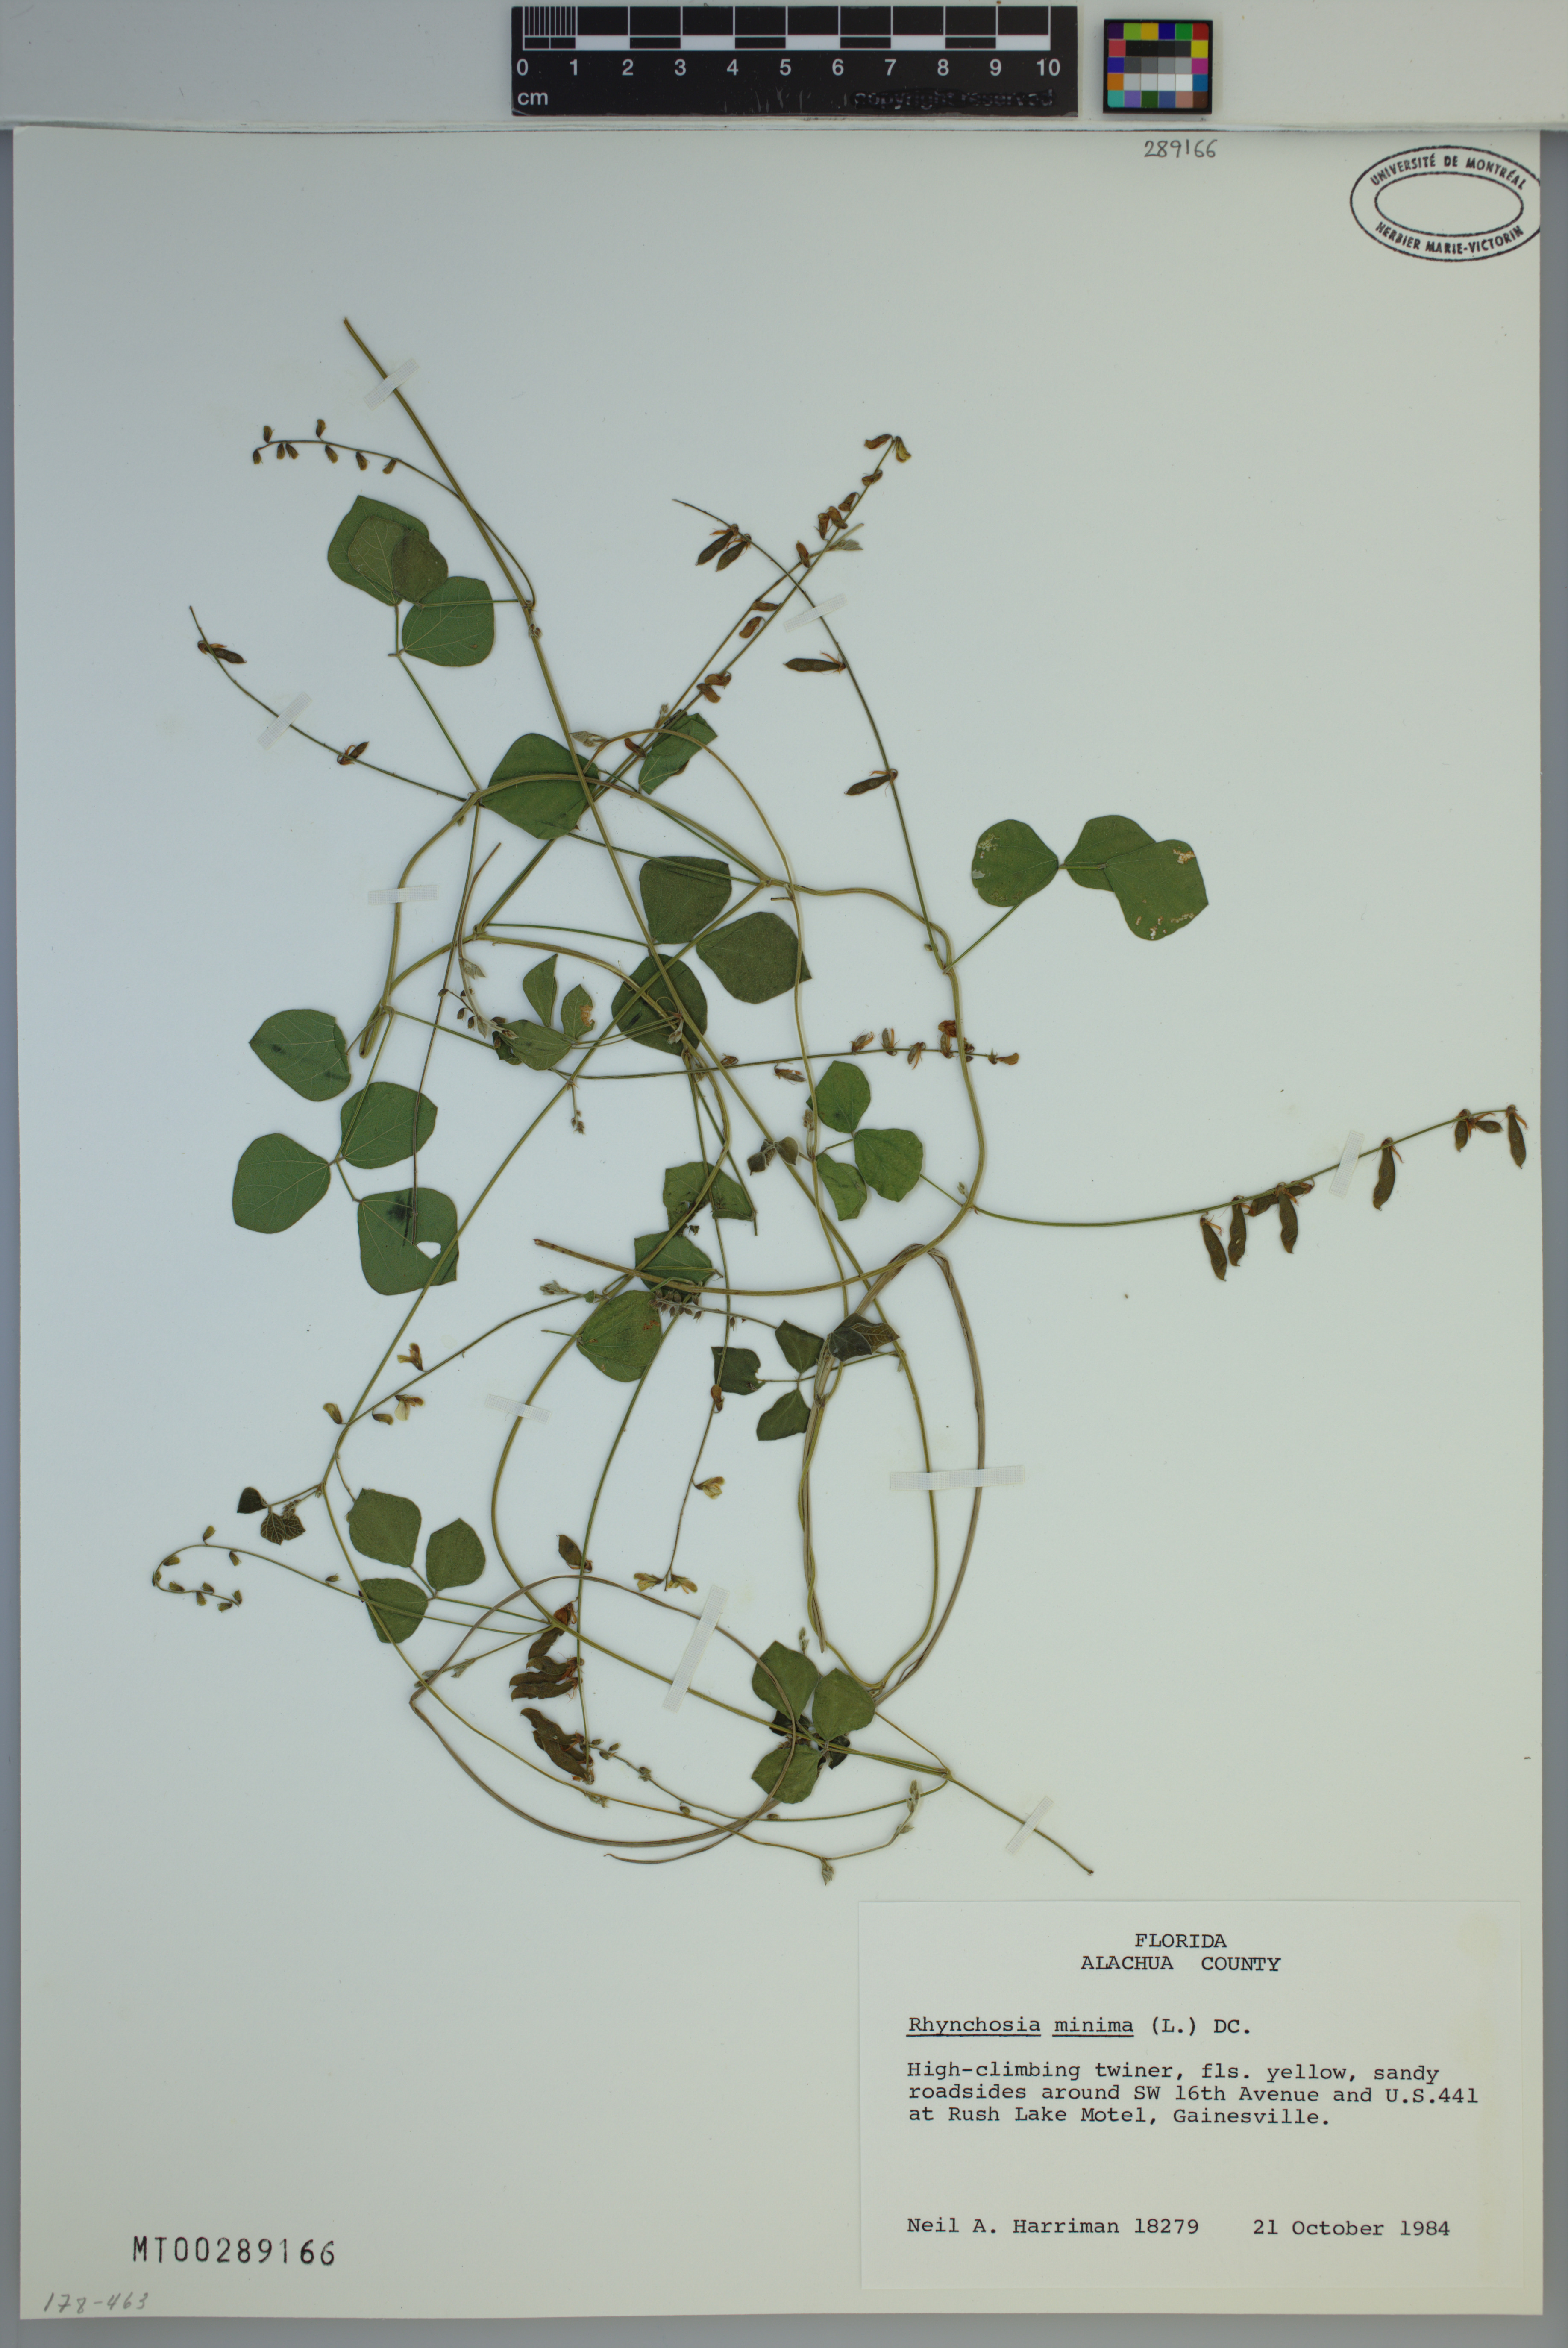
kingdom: Plantae
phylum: Tracheophyta
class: Magnoliopsida
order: Fabales
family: Fabaceae
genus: Rhynchosia
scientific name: Rhynchosia minima
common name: Least snoutbean
